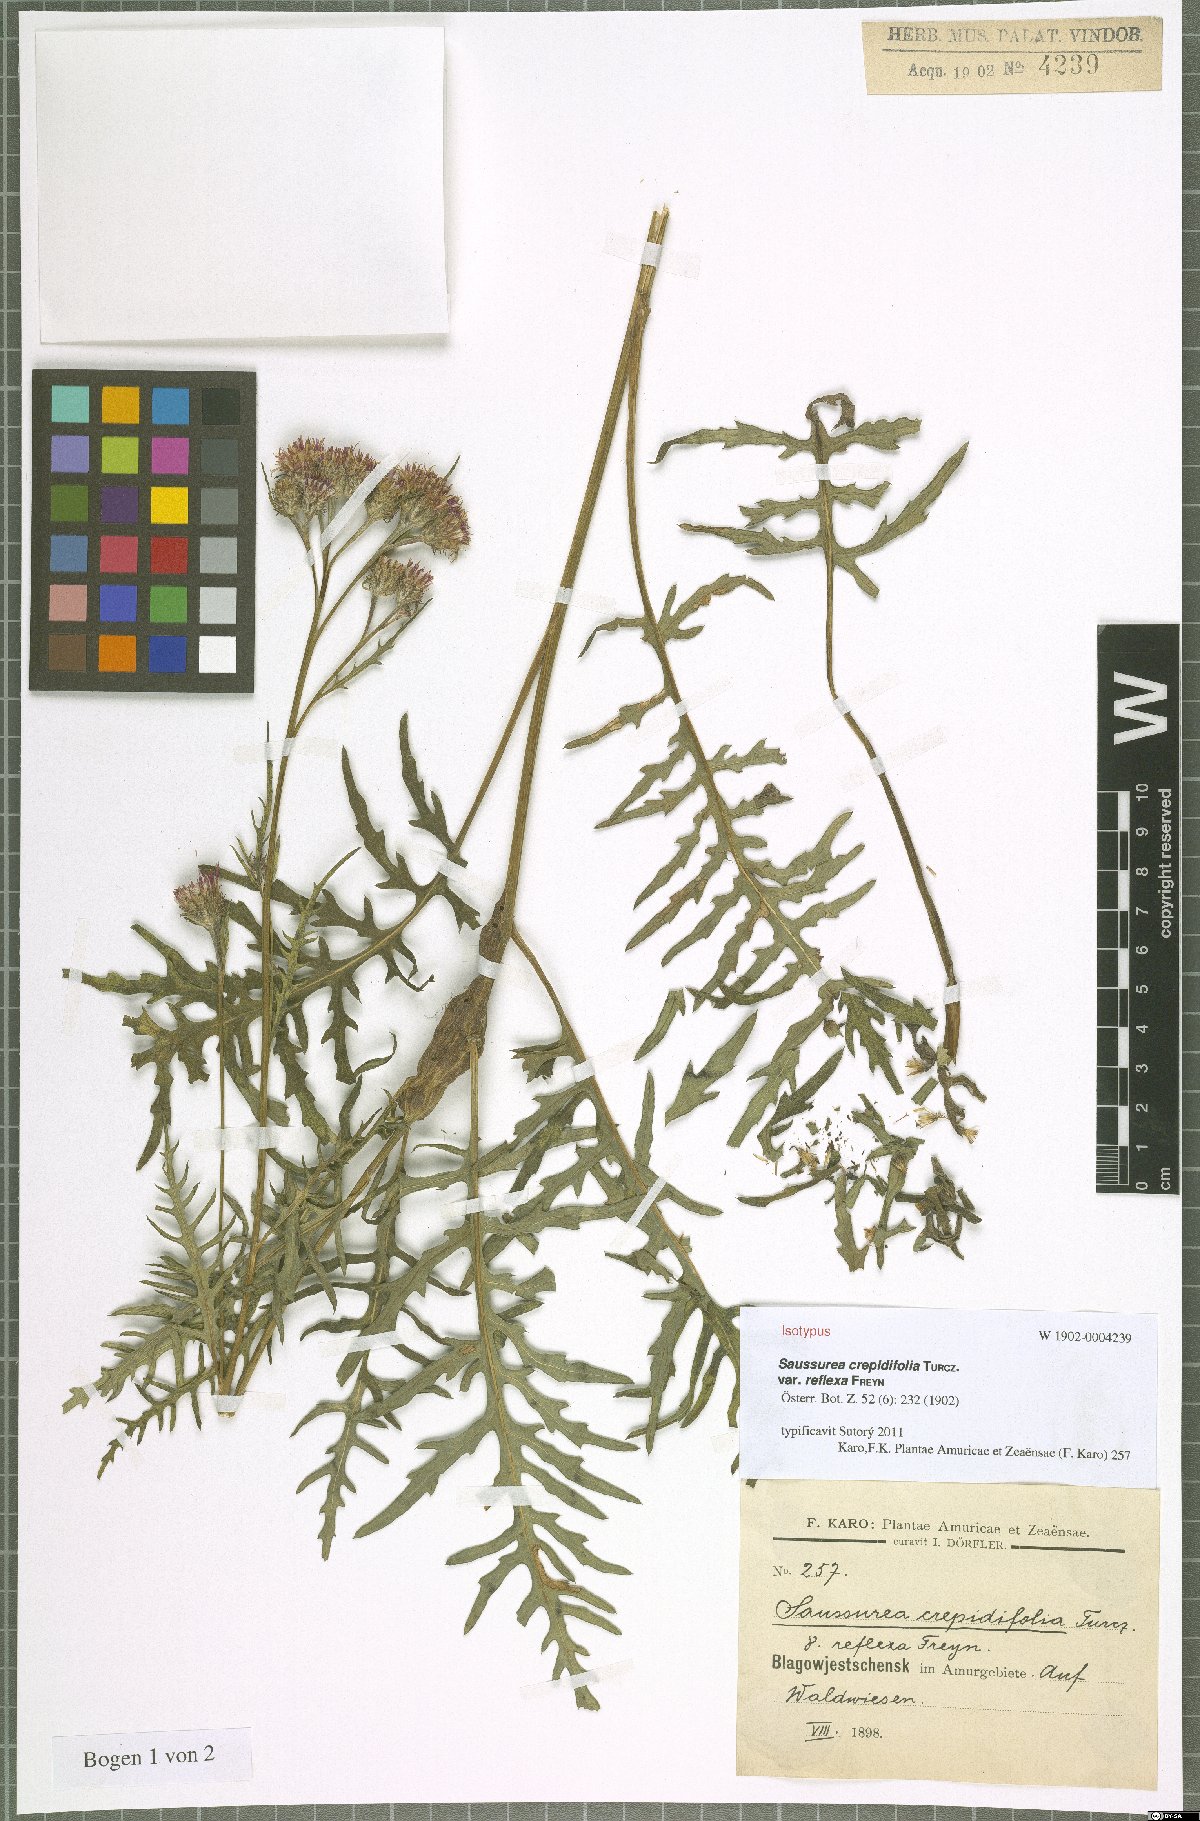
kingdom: Plantae
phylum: Tracheophyta
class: Magnoliopsida
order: Asterales
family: Asteraceae
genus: Saussurea
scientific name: Saussurea runcinata
